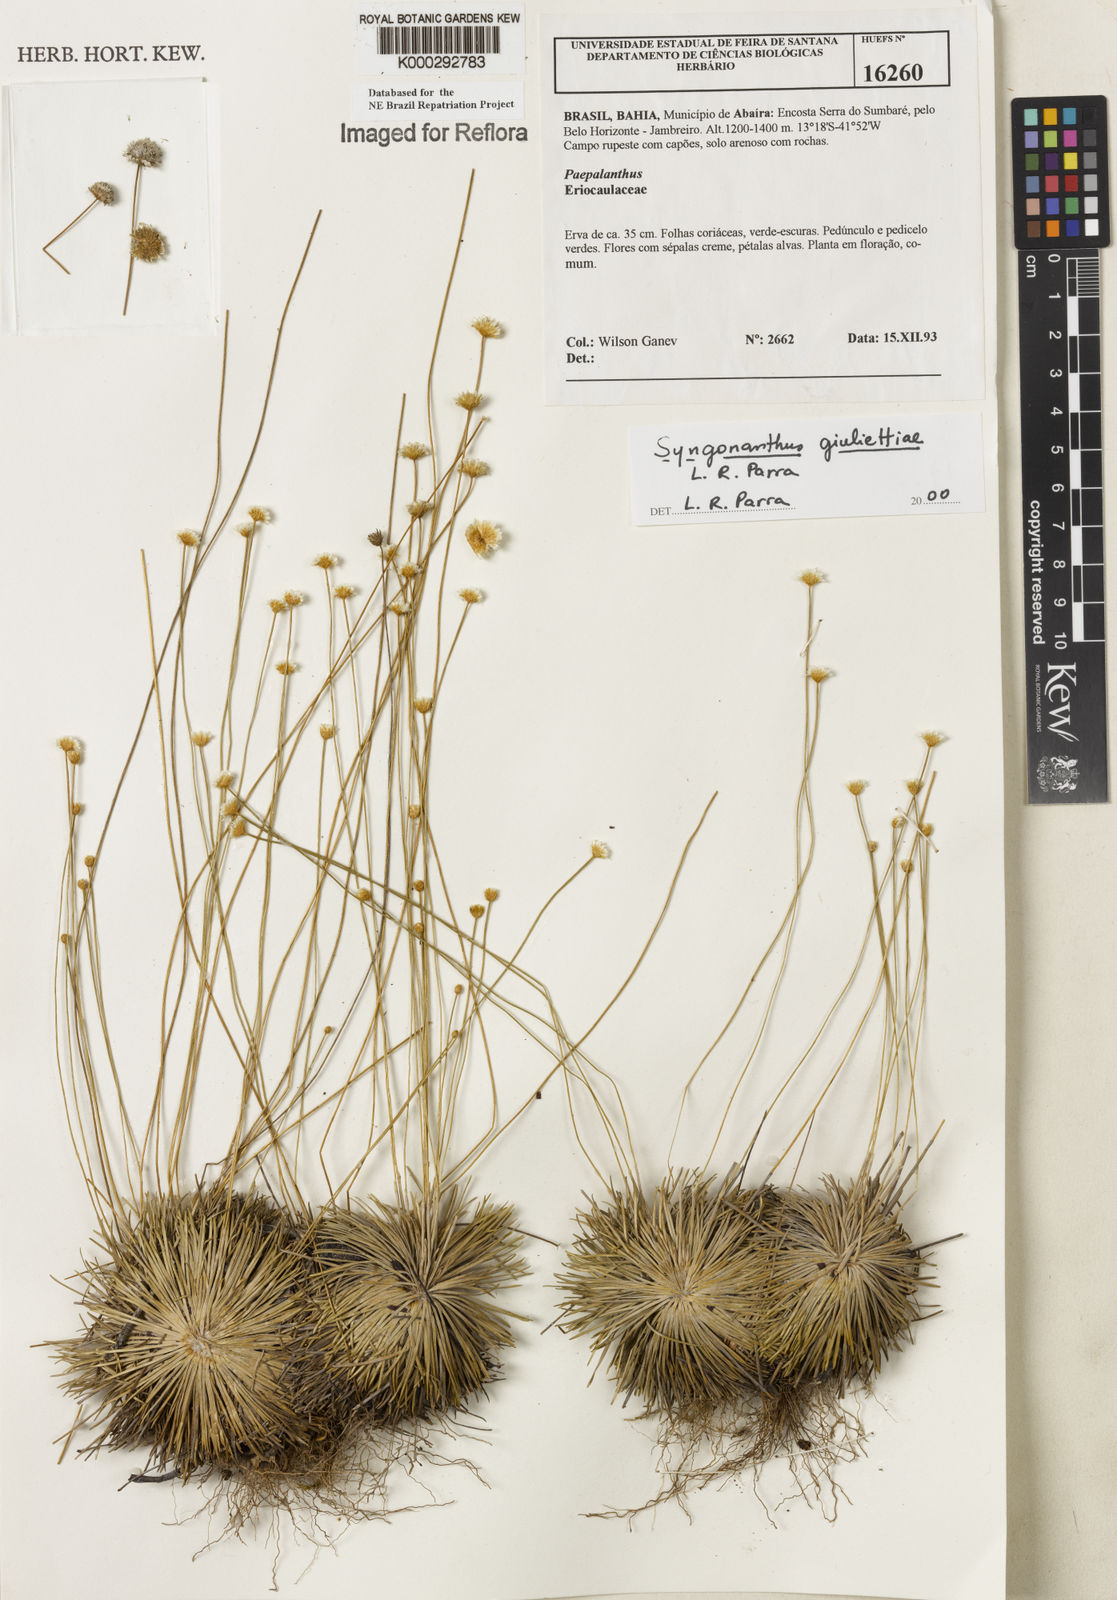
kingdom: Plantae
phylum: Tracheophyta
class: Liliopsida
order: Poales
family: Eriocaulaceae
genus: Syngonanthus
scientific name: Syngonanthus
